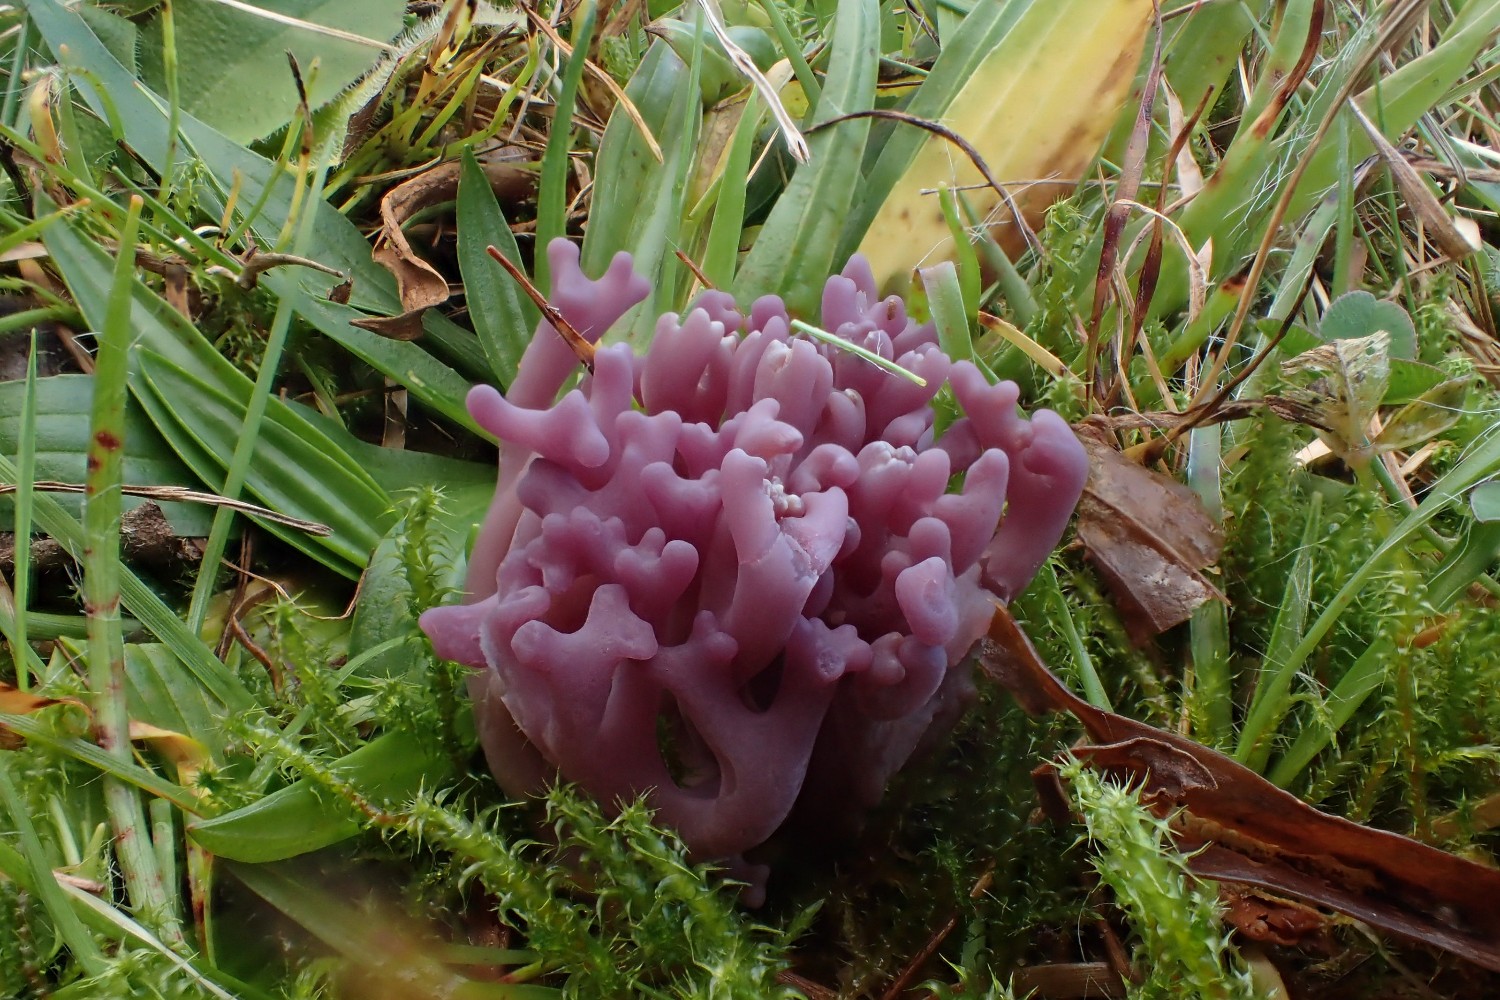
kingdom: Fungi
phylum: Basidiomycota
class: Agaricomycetes
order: Agaricales
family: Clavariaceae
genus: Clavaria
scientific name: Clavaria zollingeri
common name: purpur-køllesvamp
